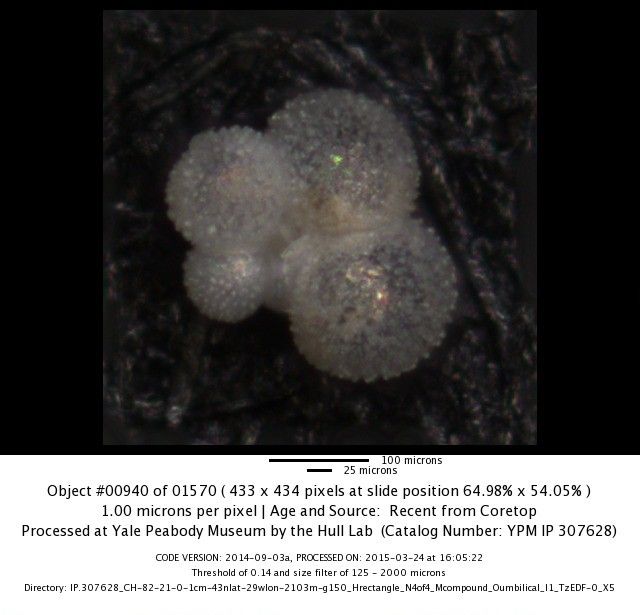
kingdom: Chromista
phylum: Foraminifera
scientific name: Foraminifera
